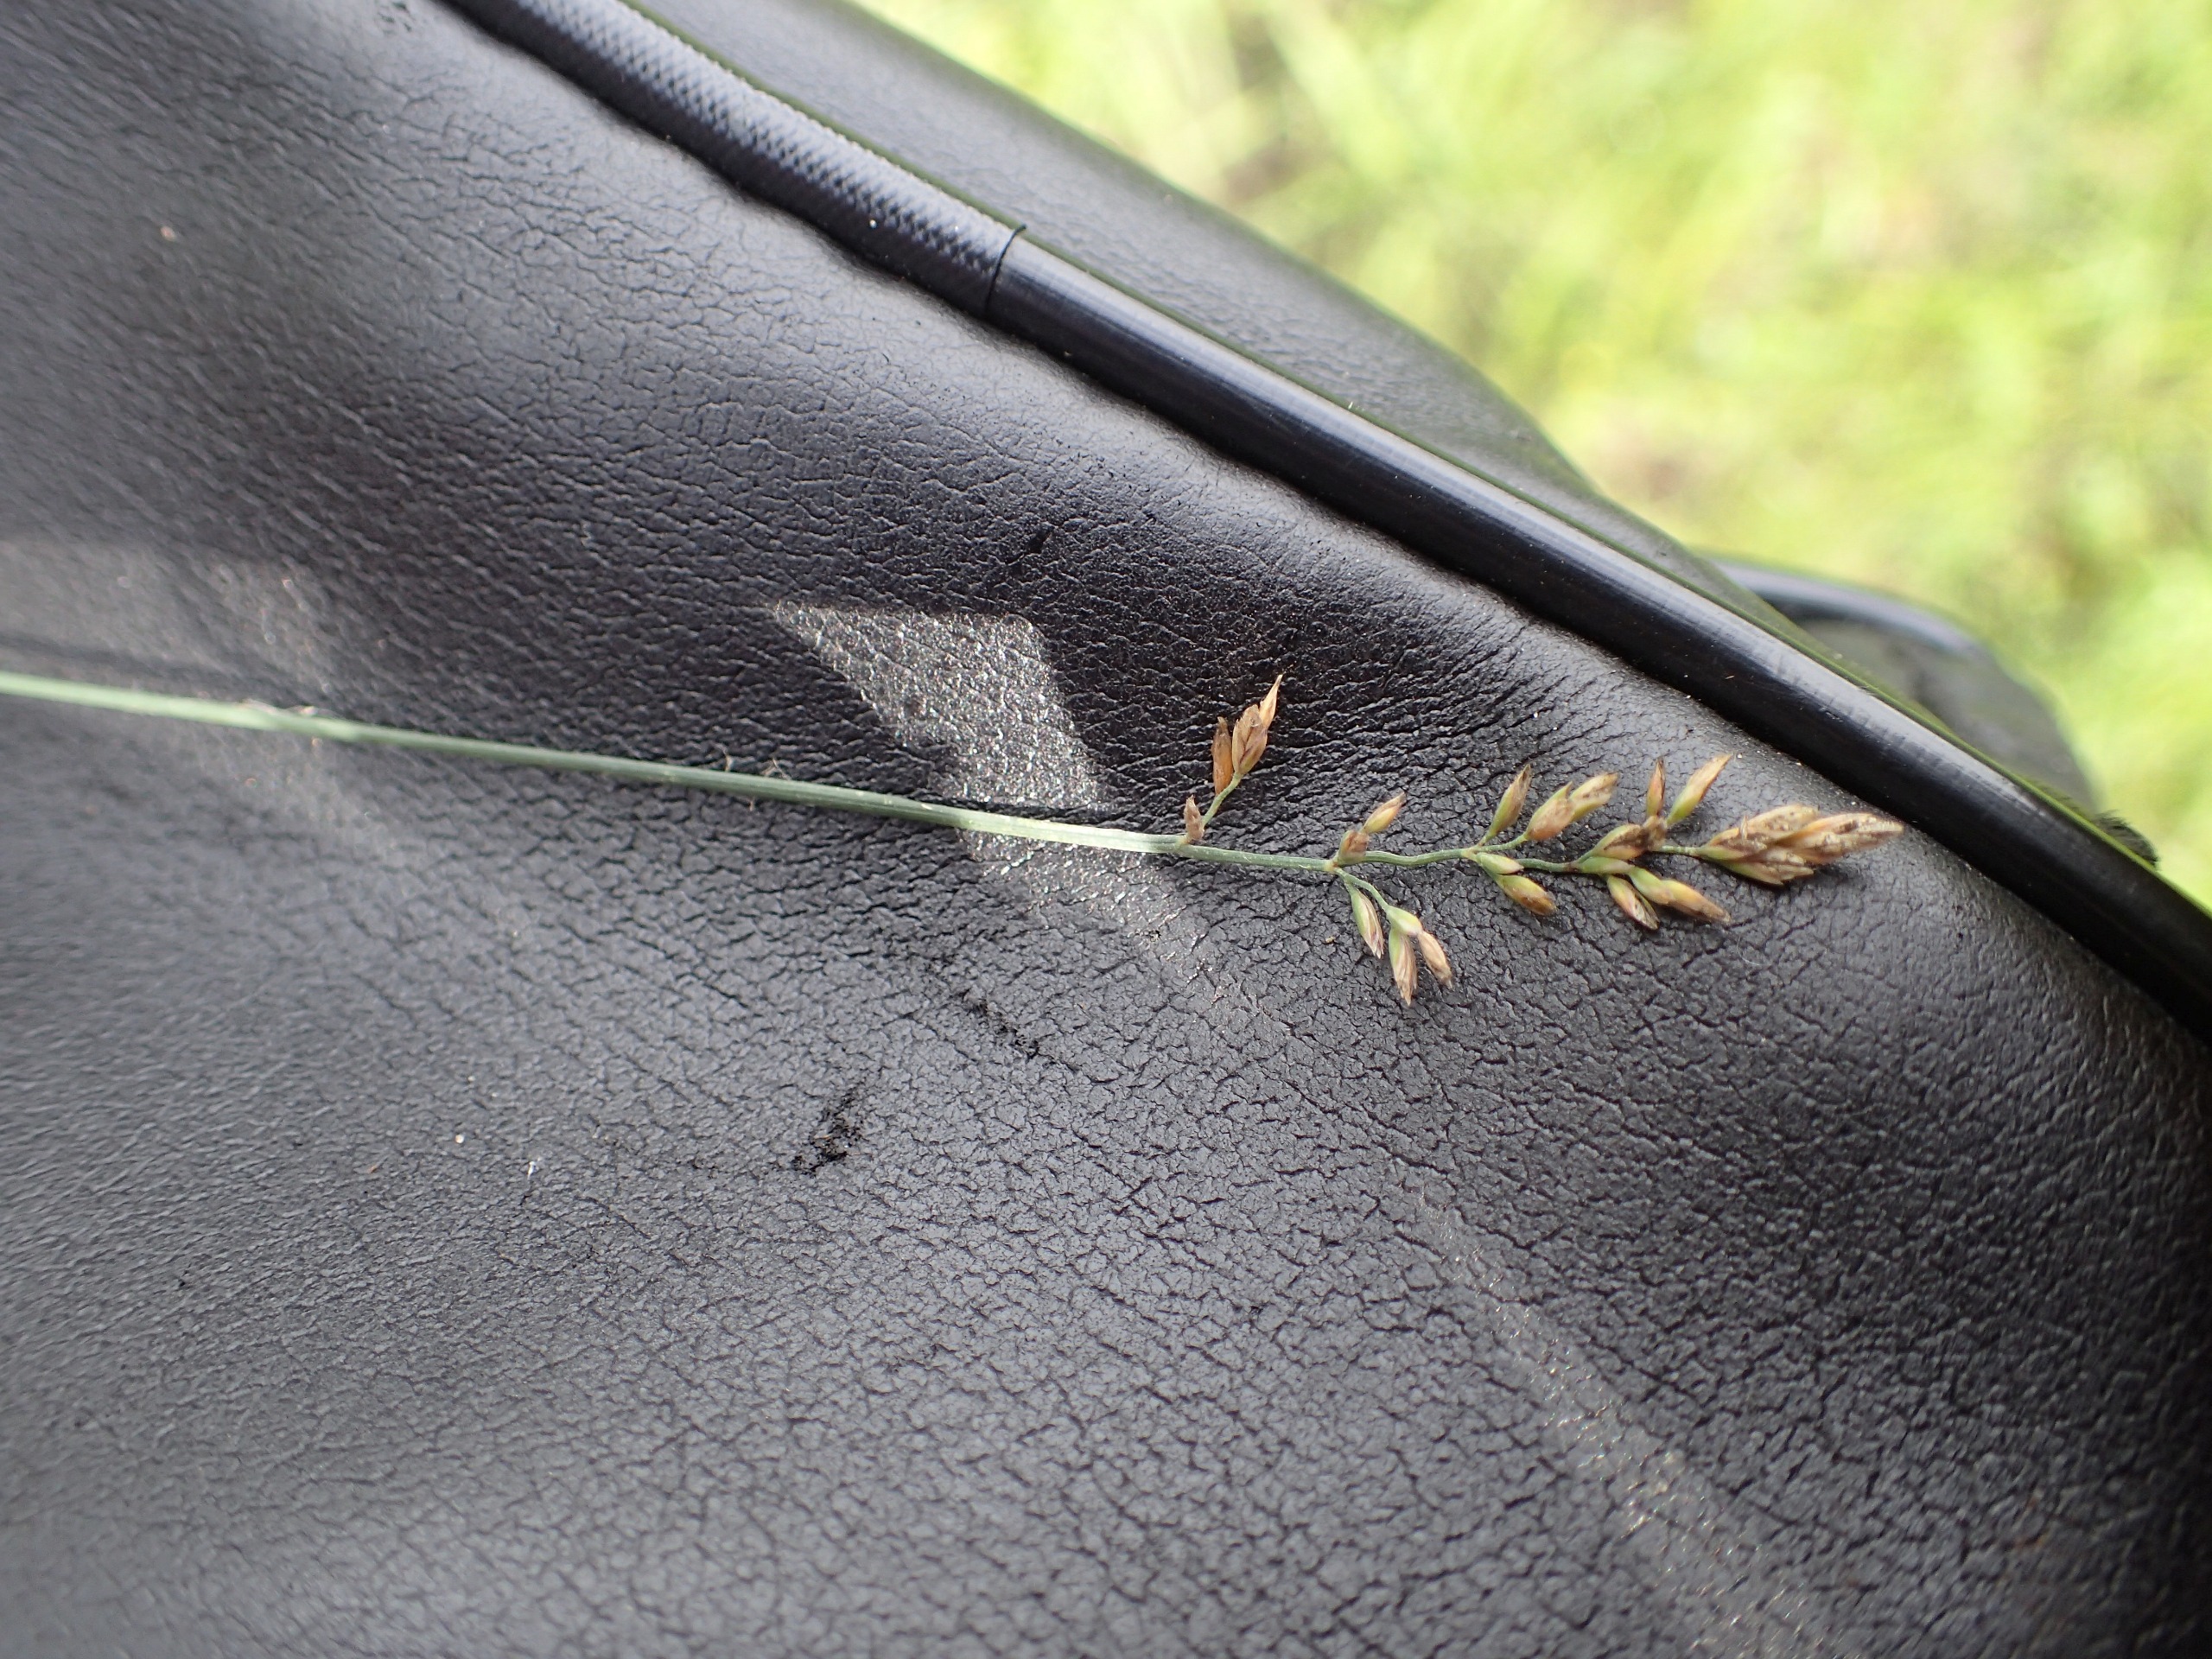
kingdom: Plantae
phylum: Tracheophyta
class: Liliopsida
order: Poales
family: Poaceae
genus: Poa
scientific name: Poa compressa
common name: Fladstrået rapgræs
